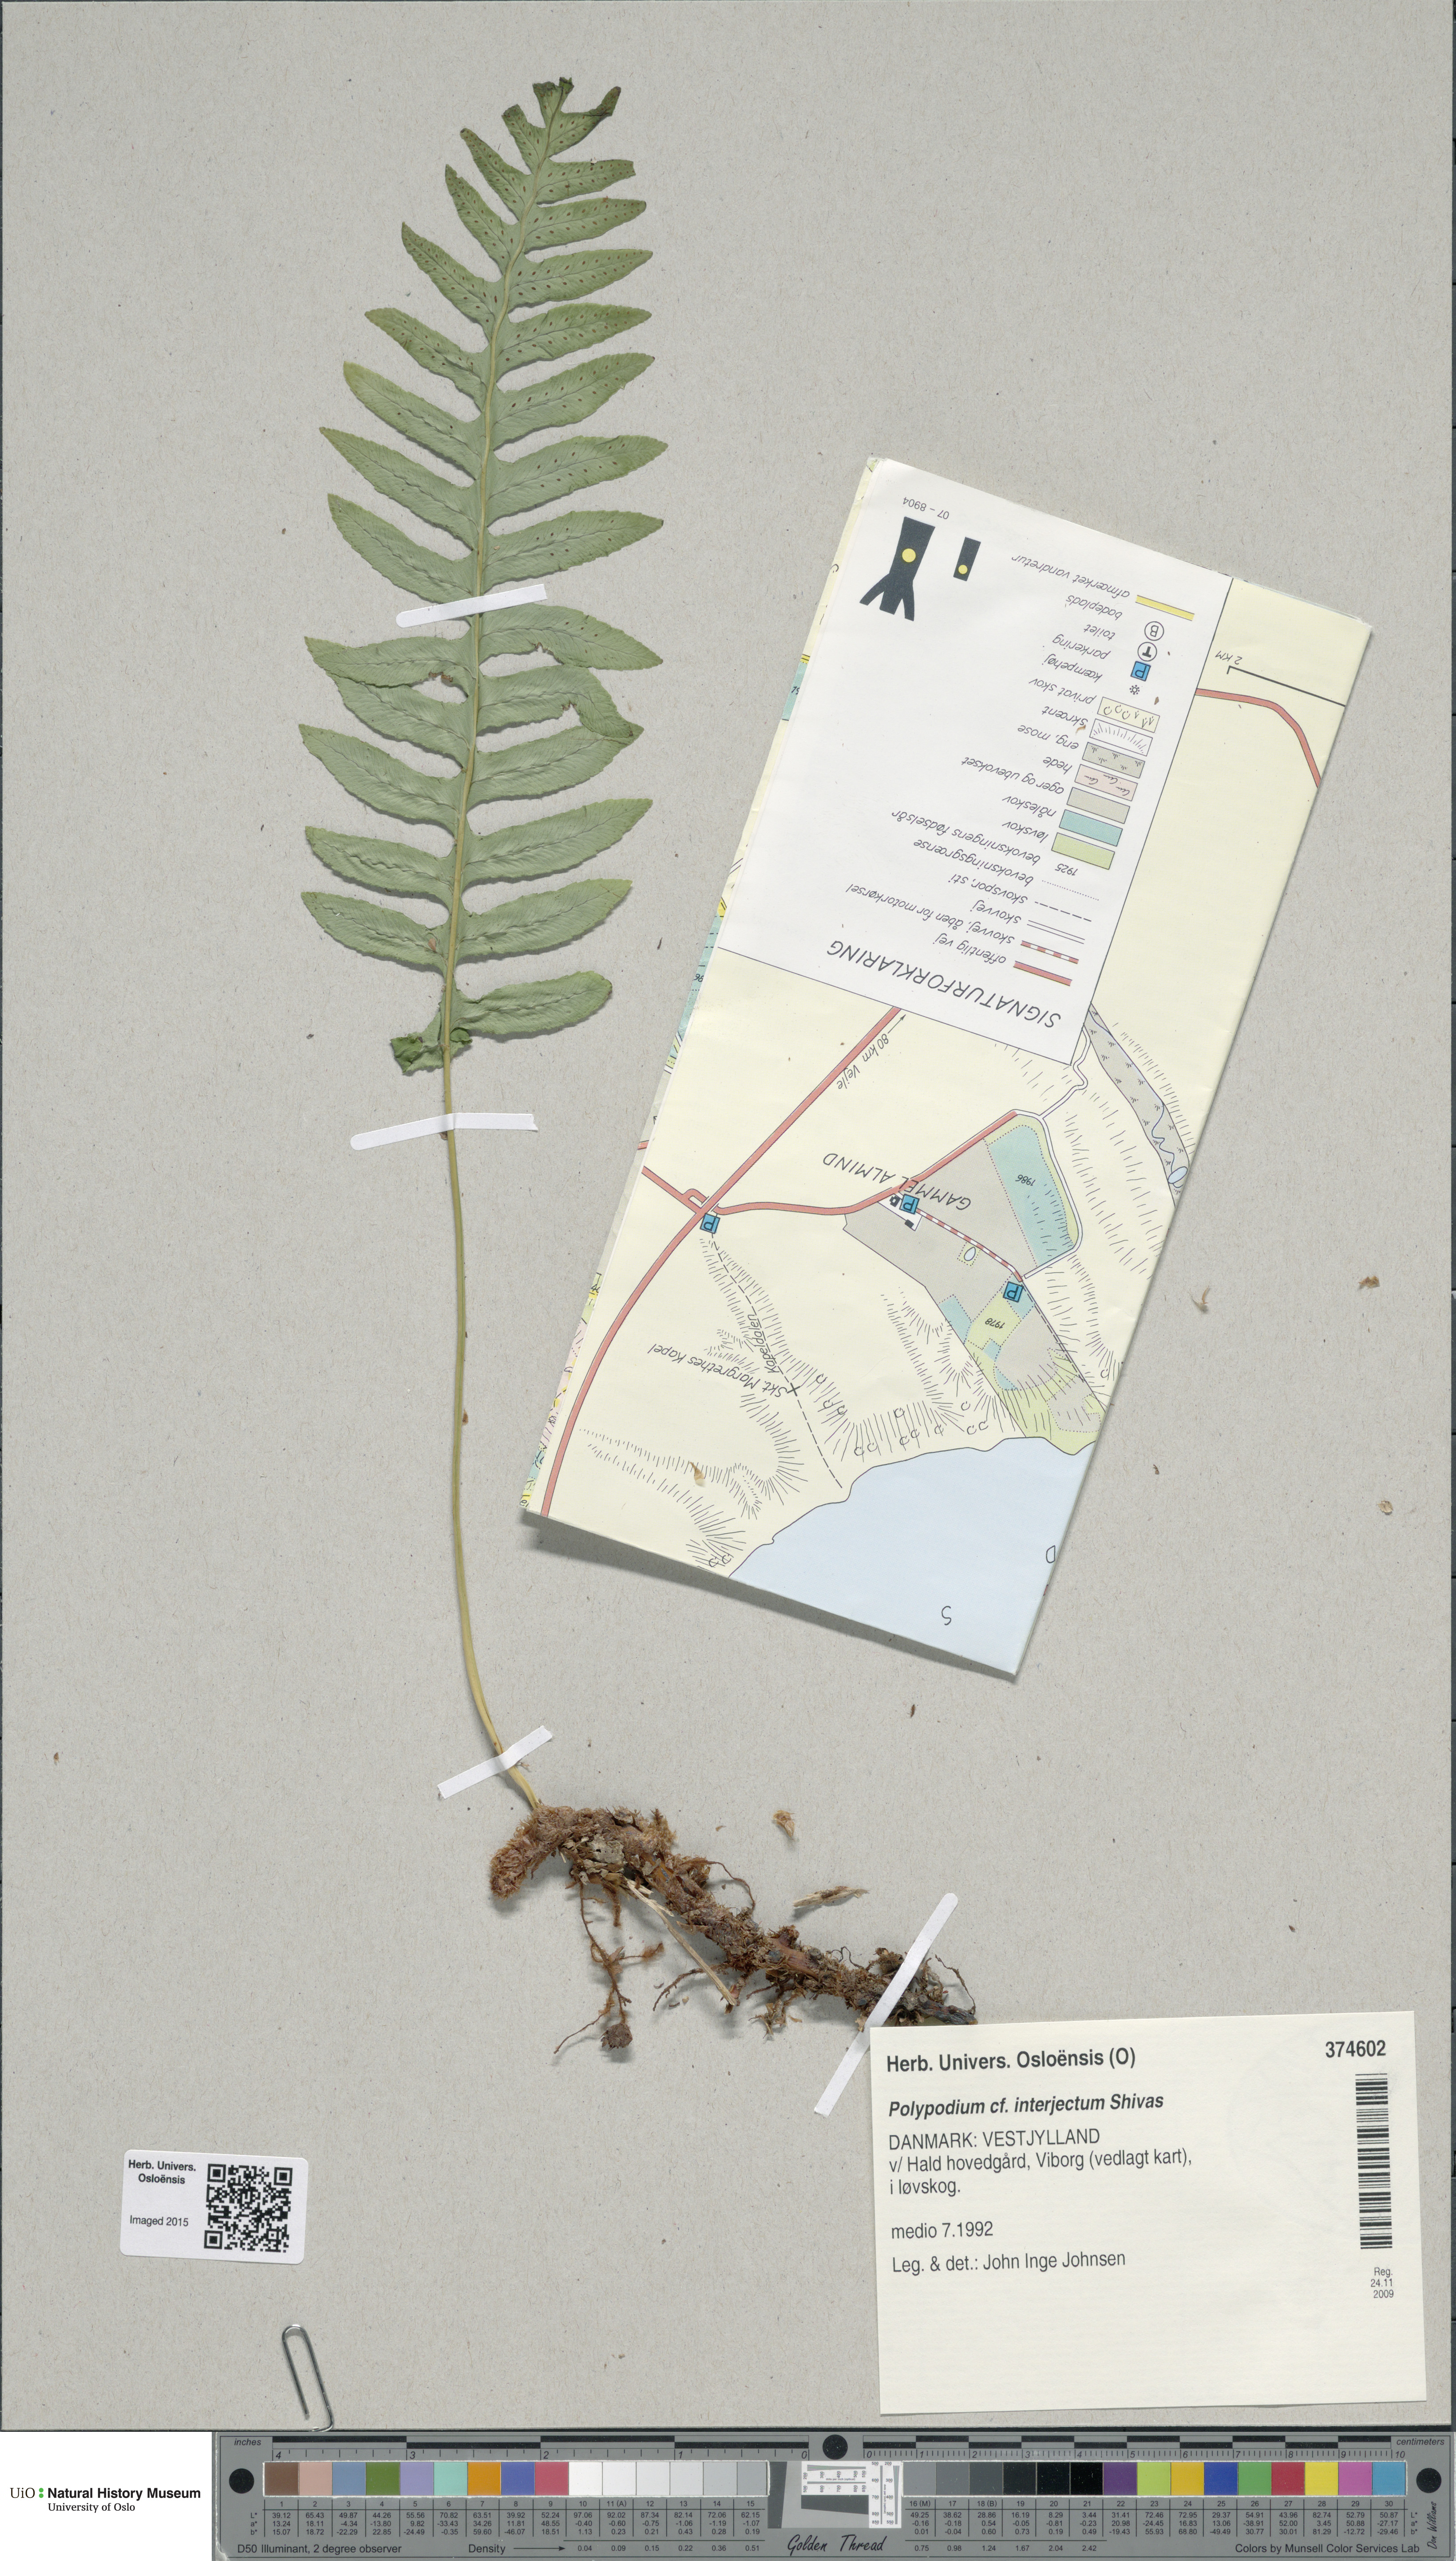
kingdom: Plantae
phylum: Tracheophyta
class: Polypodiopsida
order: Polypodiales
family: Polypodiaceae
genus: Polypodium
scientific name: Polypodium interjectum
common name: Intermediate polypody
